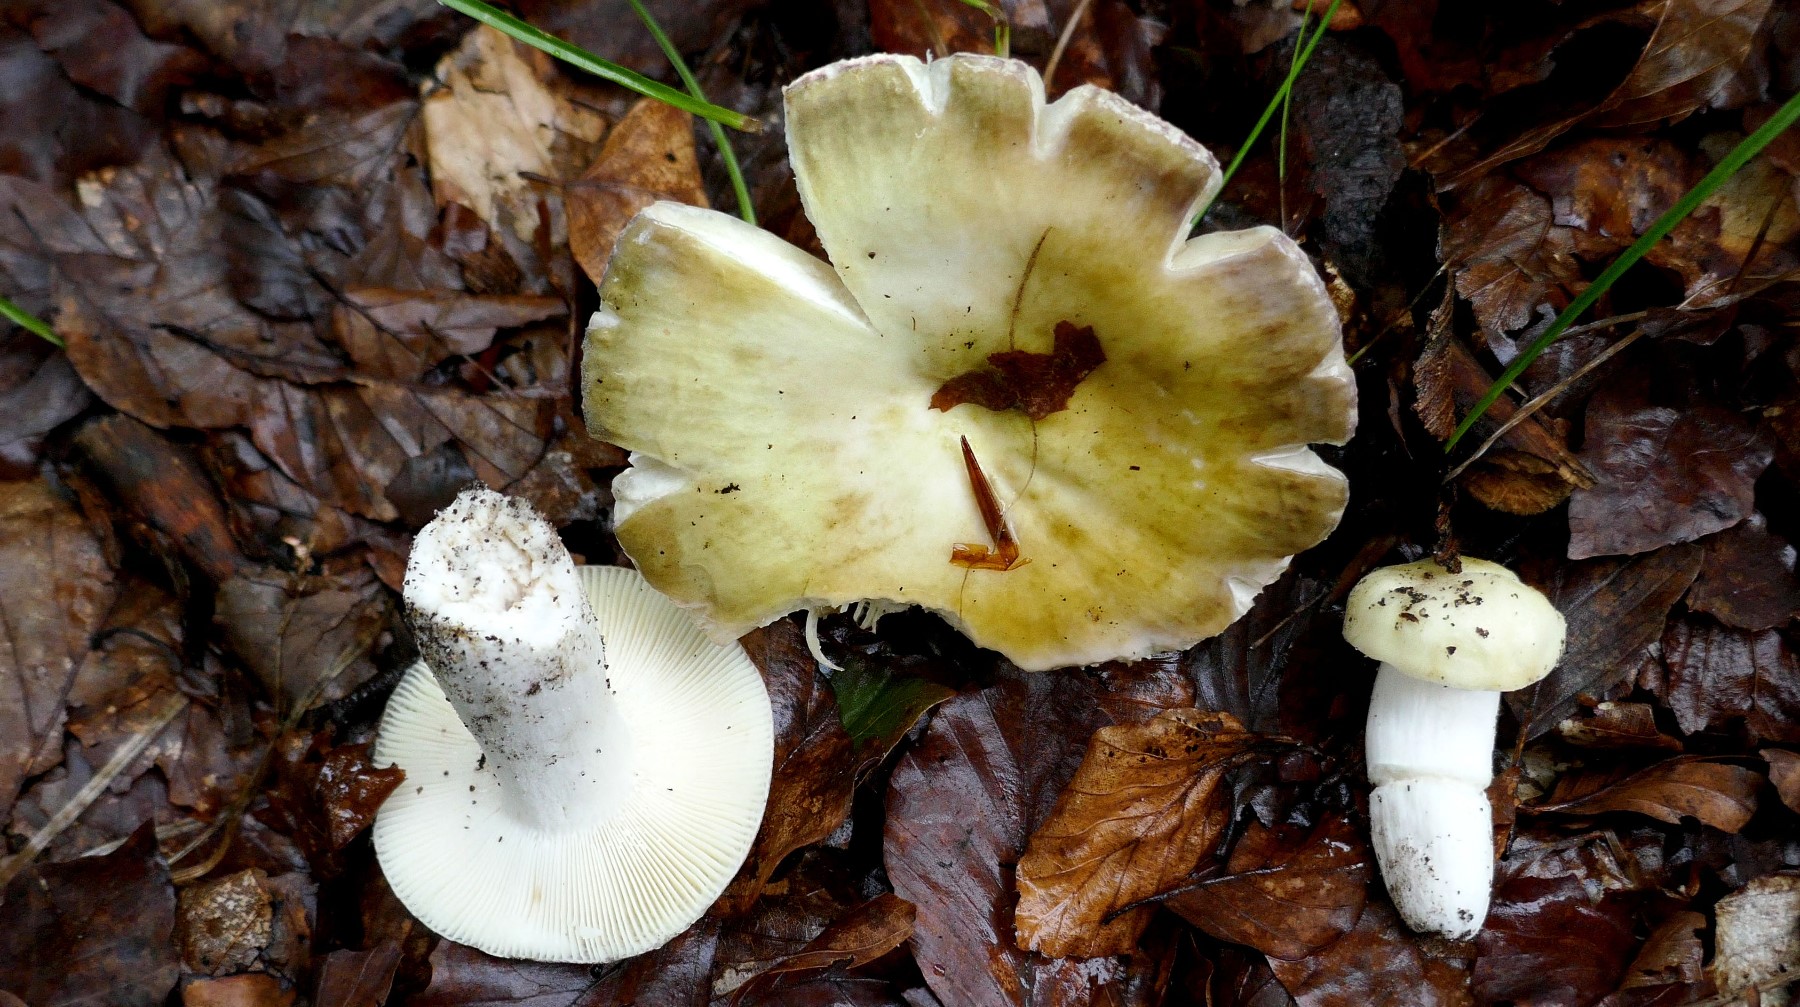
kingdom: Fungi
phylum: Basidiomycota
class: Agaricomycetes
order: Russulales
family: Russulaceae
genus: Russula
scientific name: Russula violeipes
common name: ferskengul skørhat
